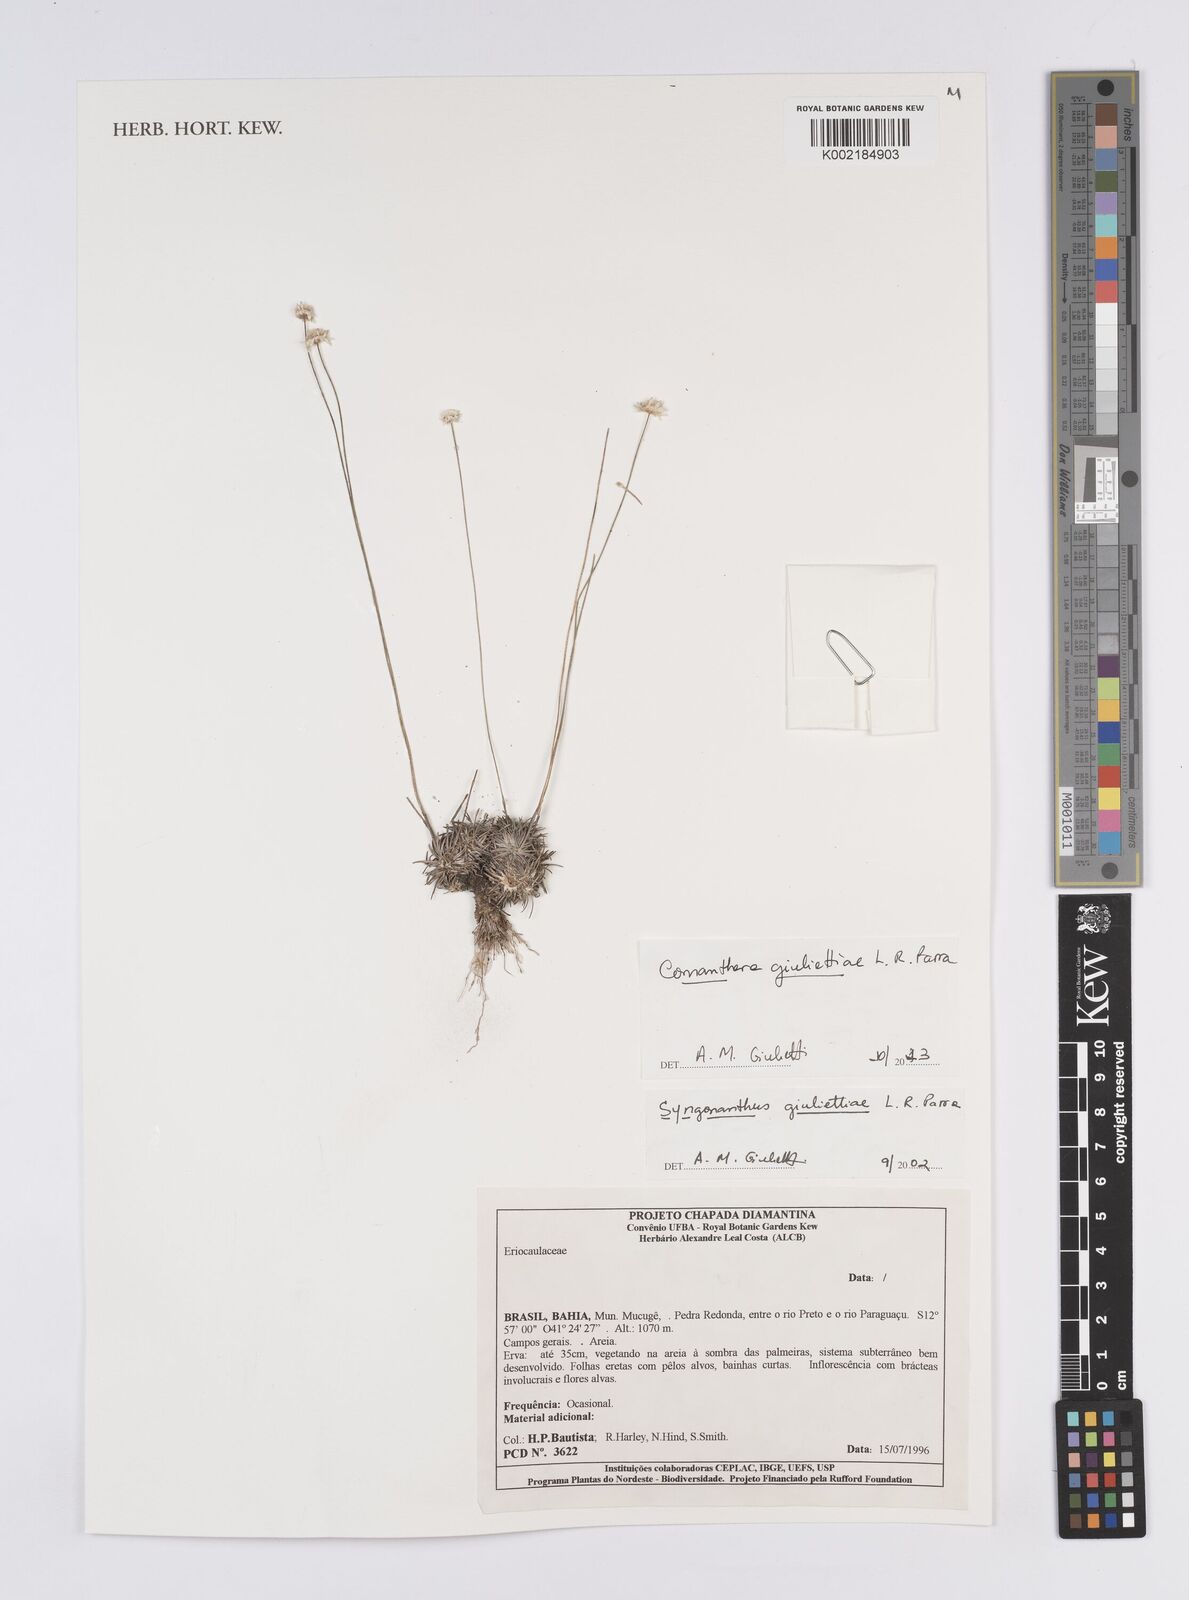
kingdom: Plantae
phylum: Tracheophyta
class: Liliopsida
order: Poales
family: Eriocaulaceae
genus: Comanthera
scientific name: Comanthera giuliettiae
